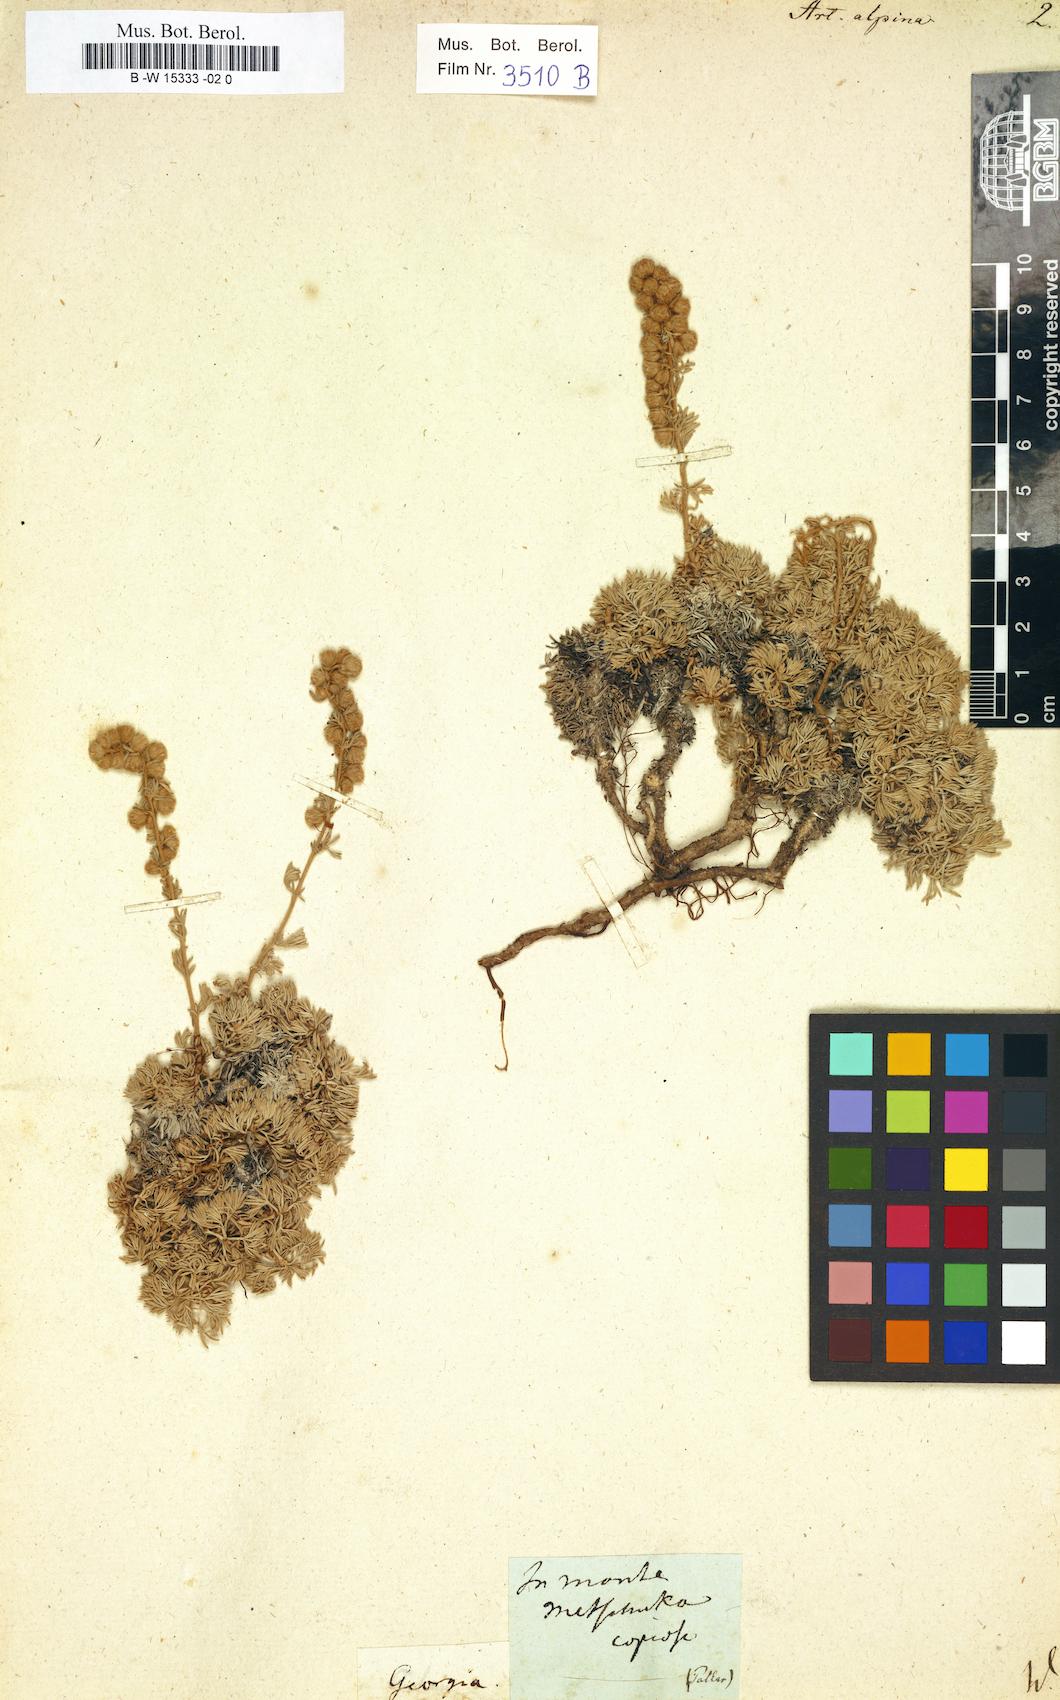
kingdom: Plantae
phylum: Tracheophyta
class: Magnoliopsida
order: Asterales
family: Asteraceae
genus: Artemisia
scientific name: Artemisia alpina
